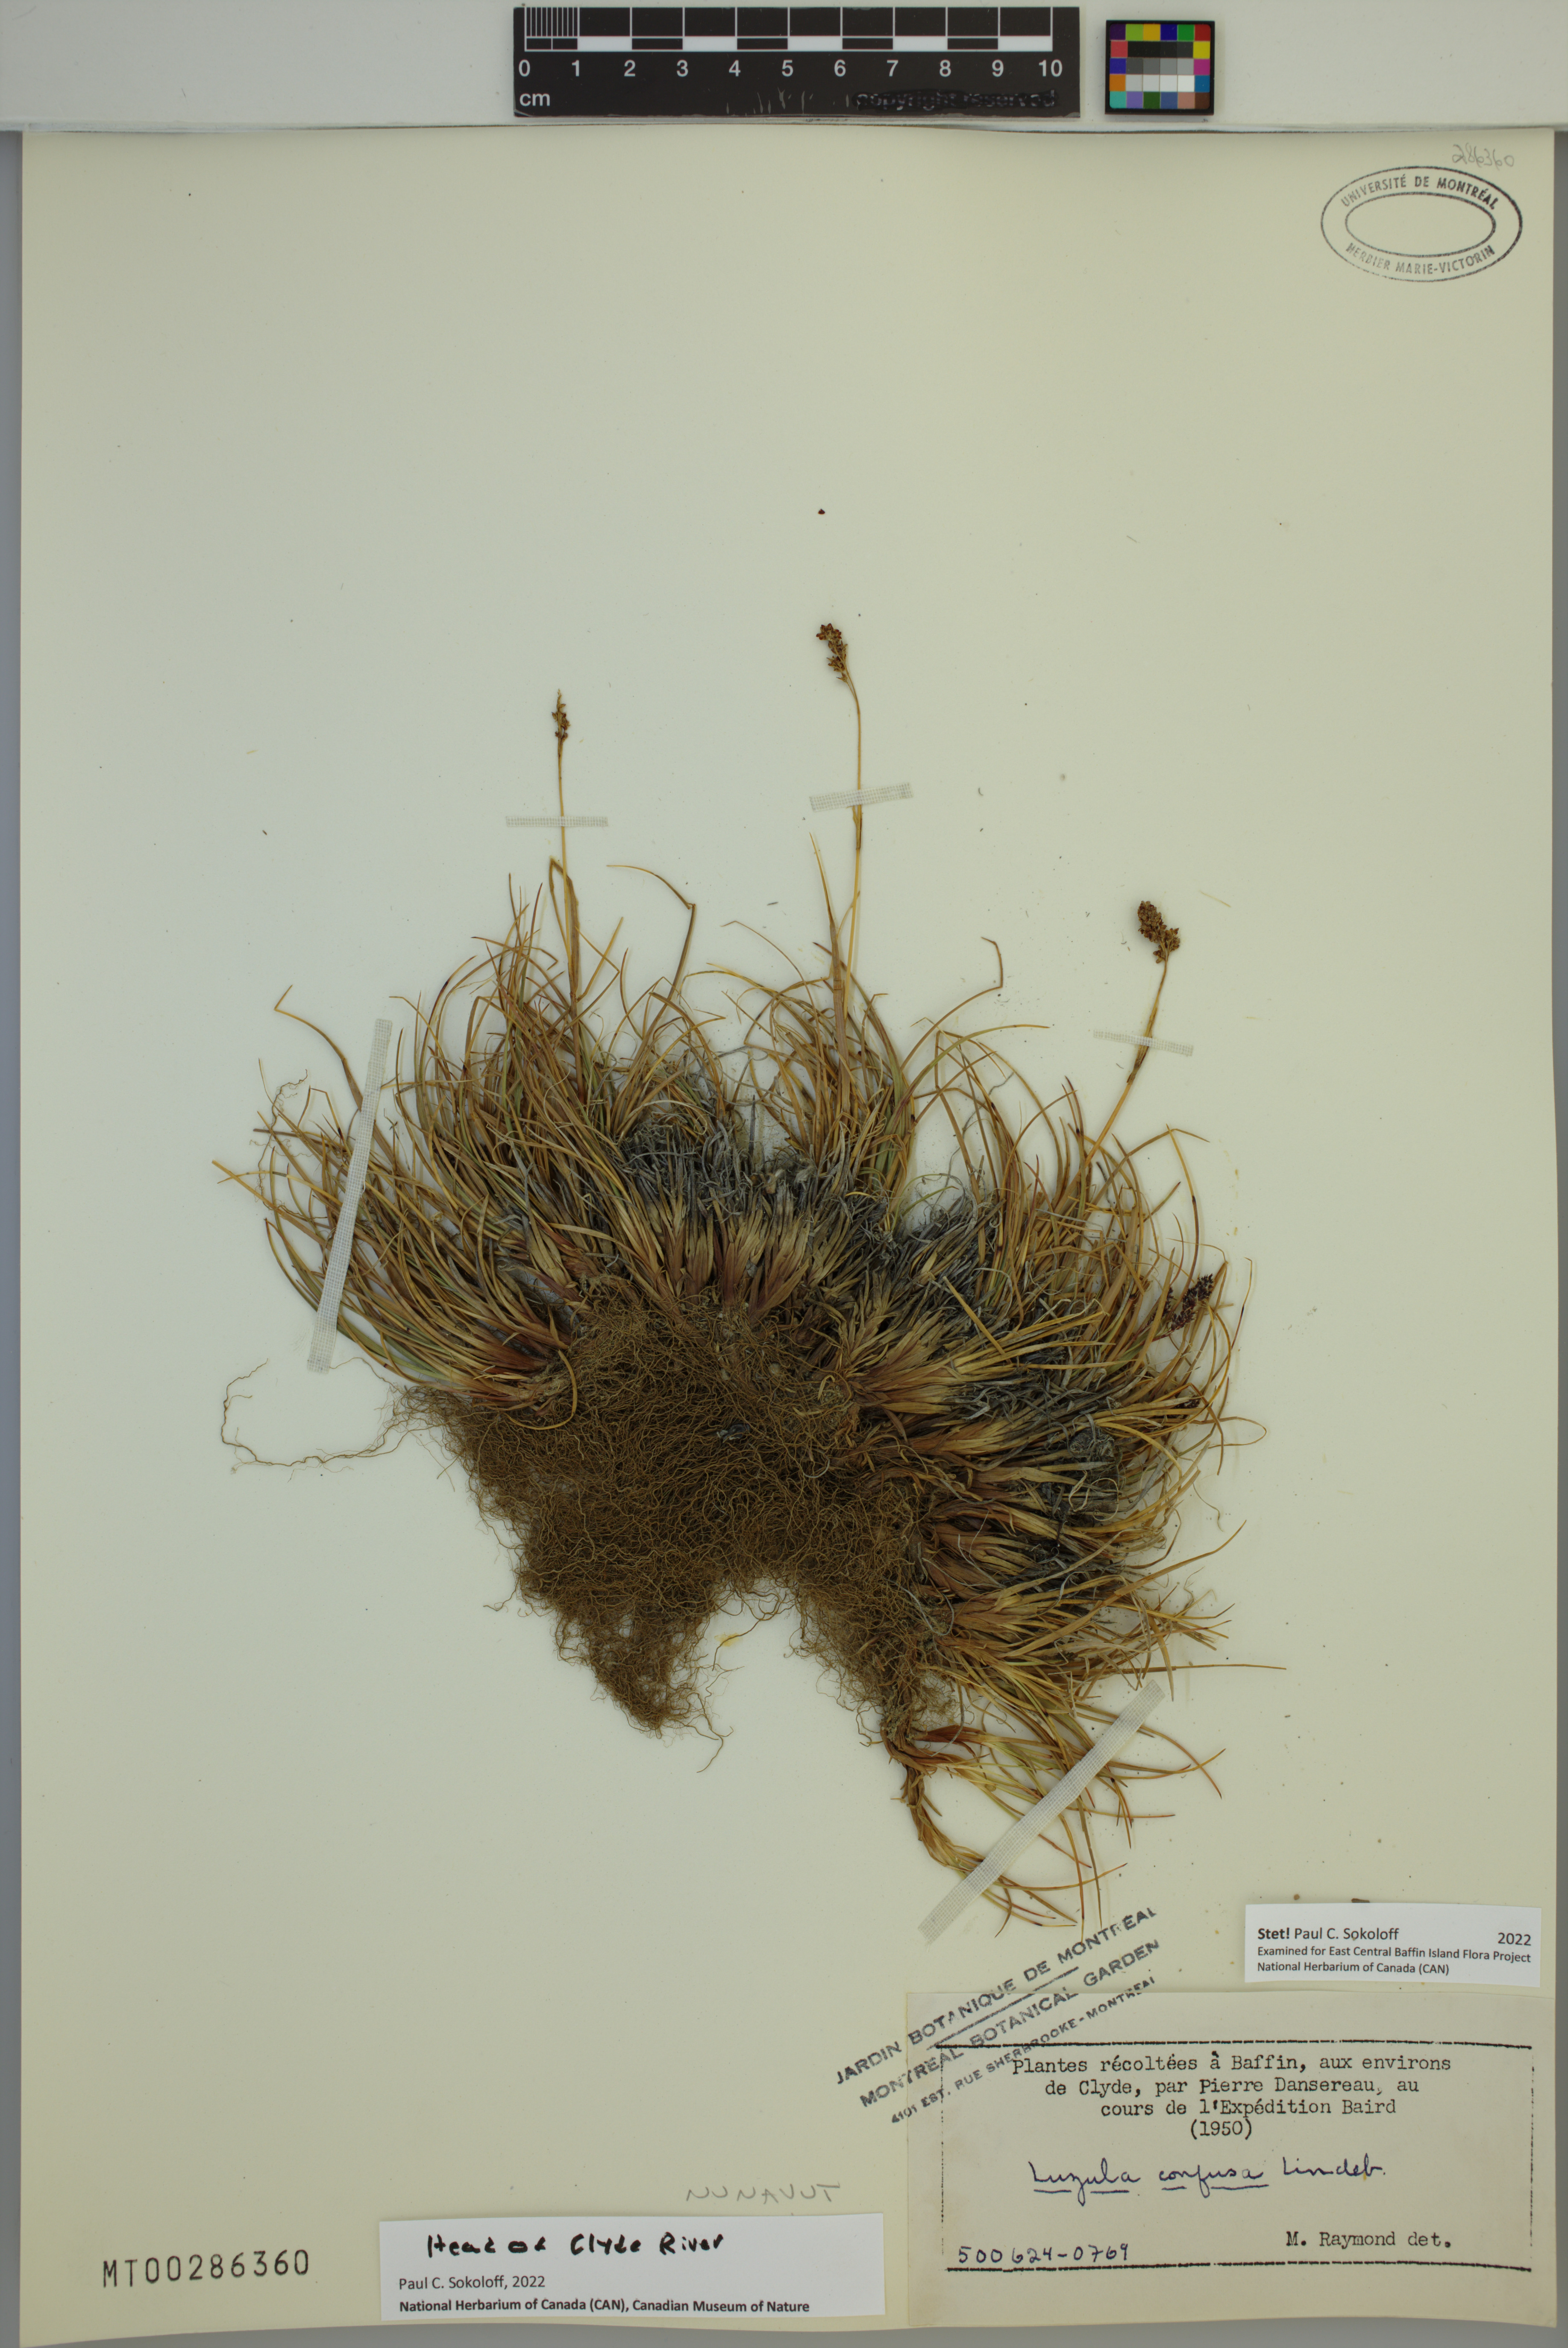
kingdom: Plantae
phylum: Tracheophyta
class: Liliopsida
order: Poales
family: Juncaceae
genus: Luzula
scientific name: Luzula confusa
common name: Northern wood rush
